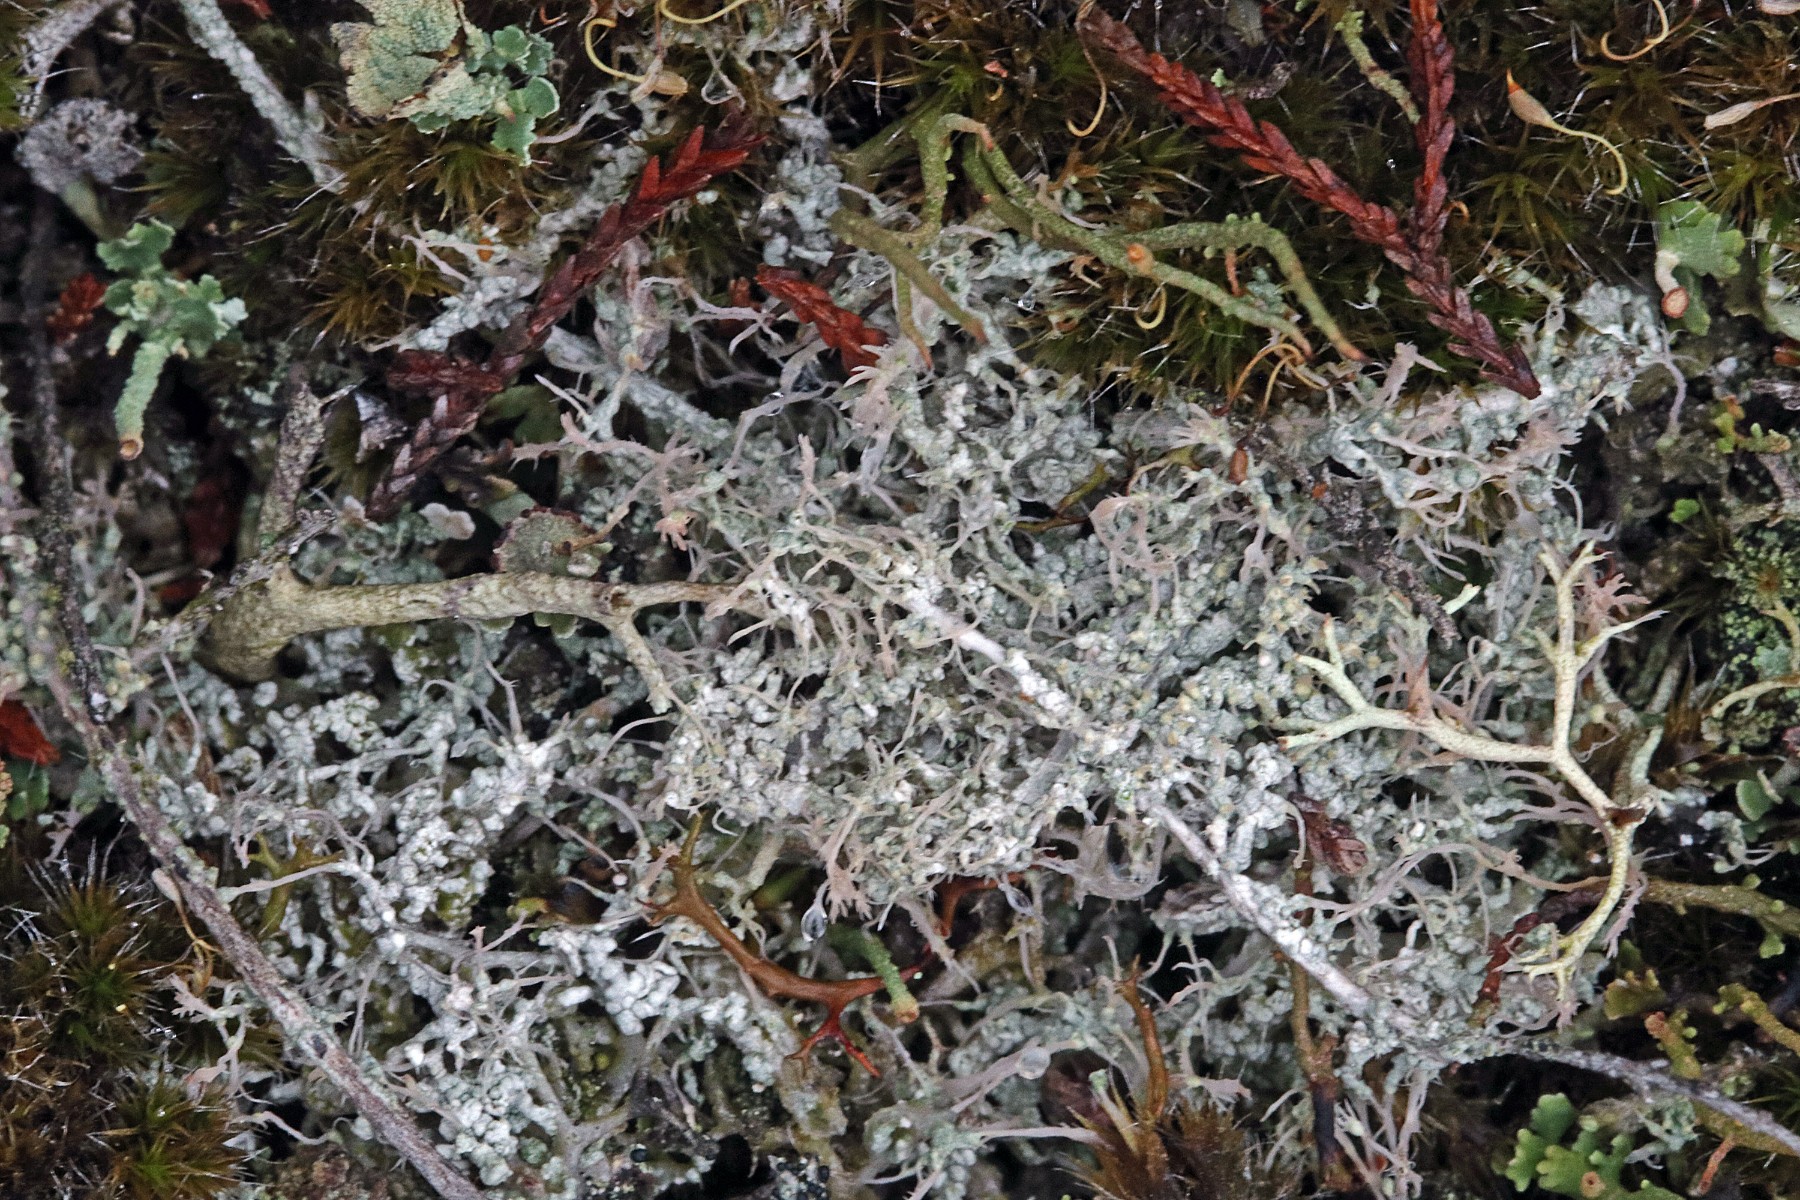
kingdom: Fungi
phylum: Ascomycota
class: Lecanoromycetes
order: Pertusariales
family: Ochrolechiaceae
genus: Ochrolechia
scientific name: Ochrolechia frigida
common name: fjeld-blegskivelav
